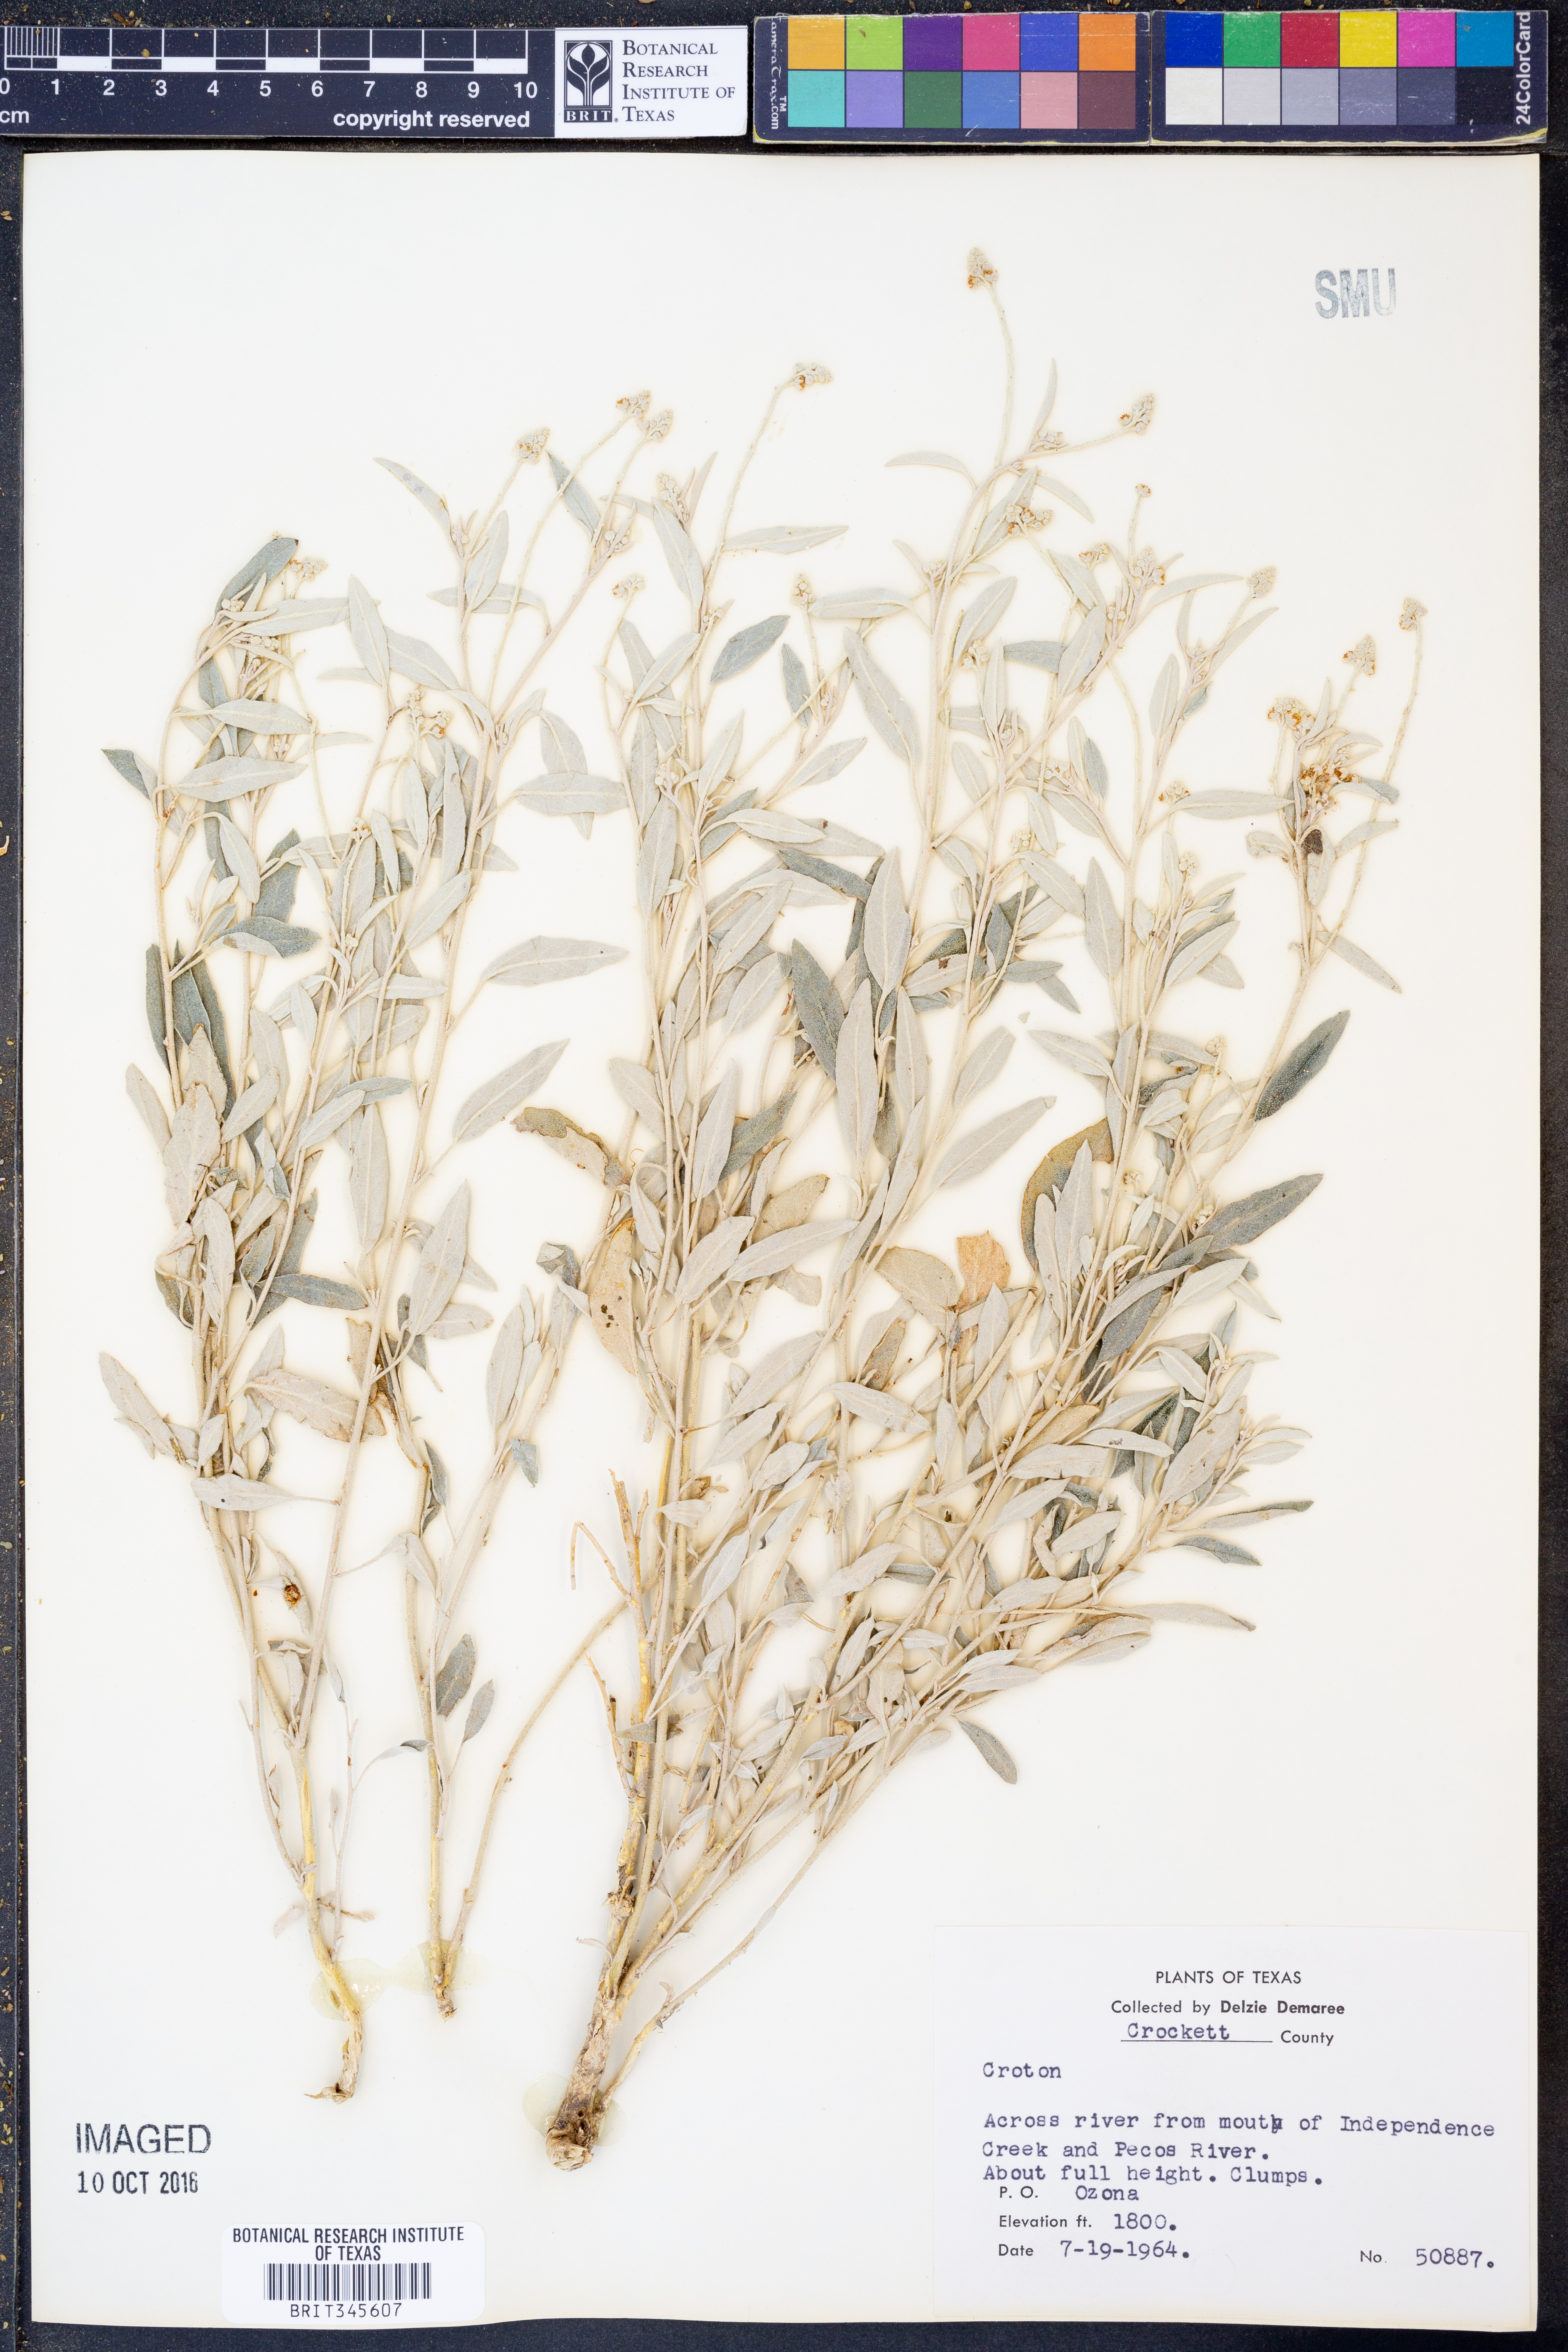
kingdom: Plantae
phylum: Tracheophyta
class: Magnoliopsida
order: Malpighiales
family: Euphorbiaceae
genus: Croton
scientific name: Croton
